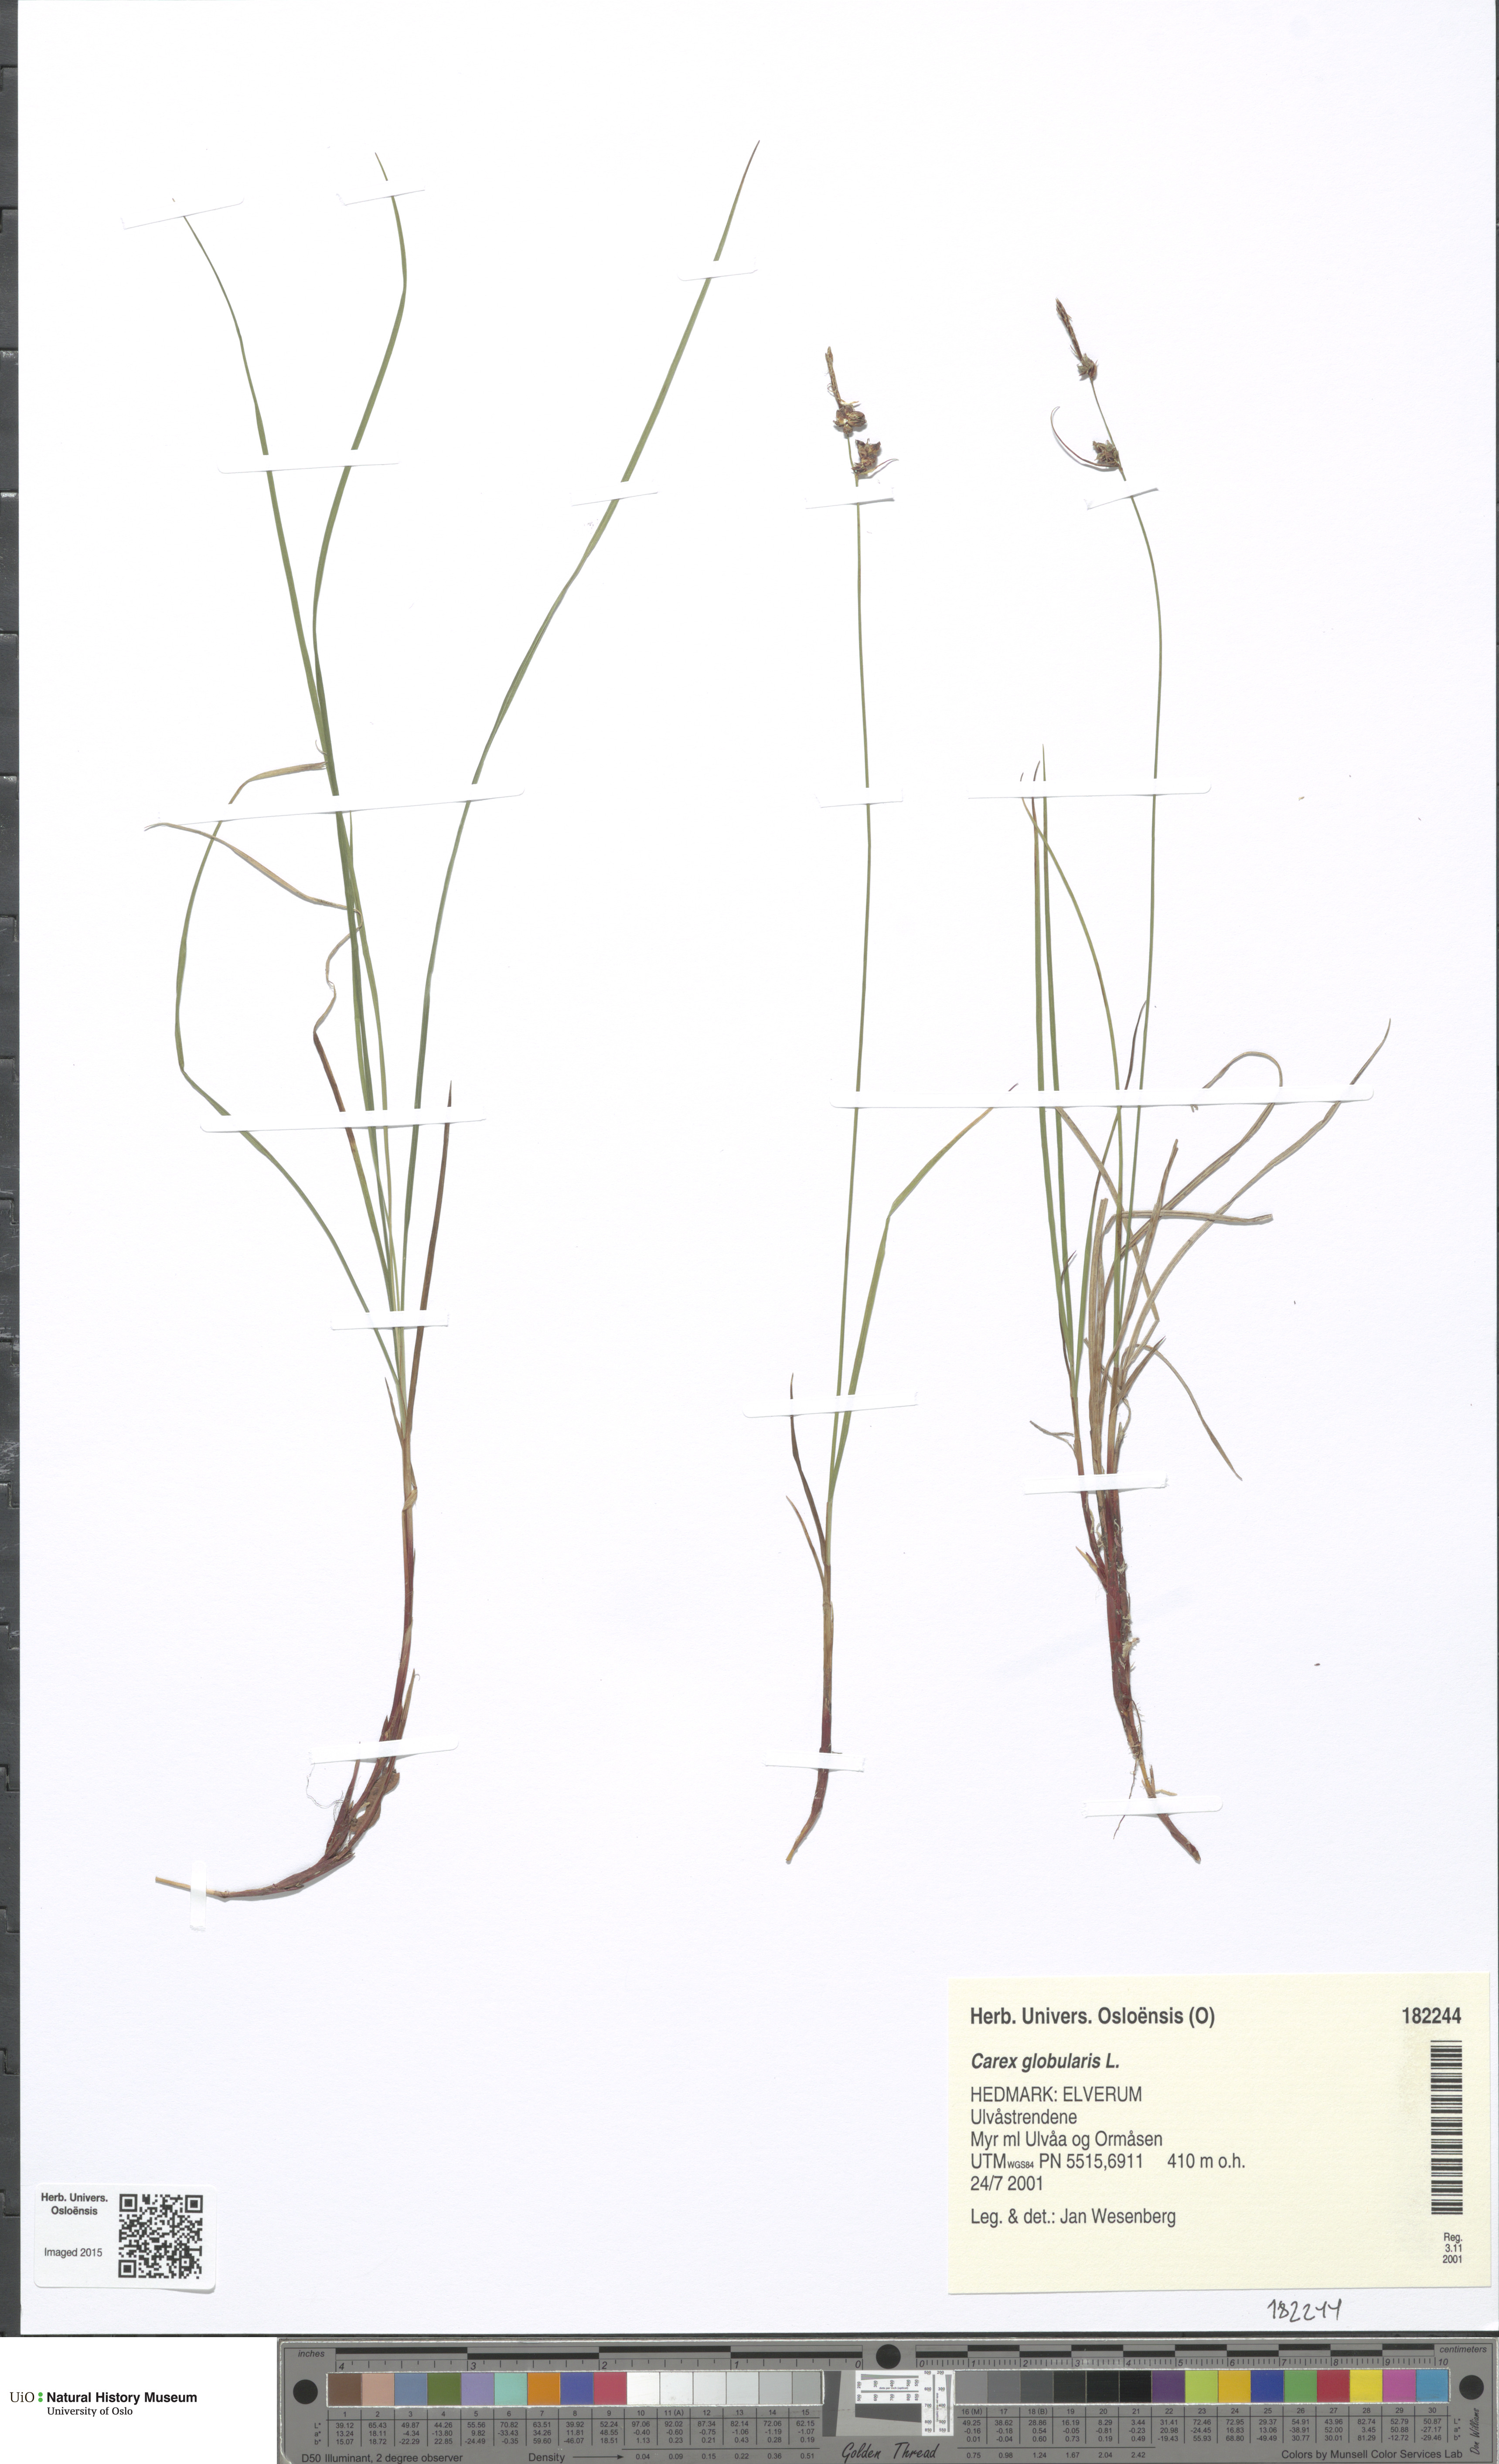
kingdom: Plantae
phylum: Tracheophyta
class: Liliopsida
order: Poales
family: Cyperaceae
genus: Carex
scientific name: Carex globularis
